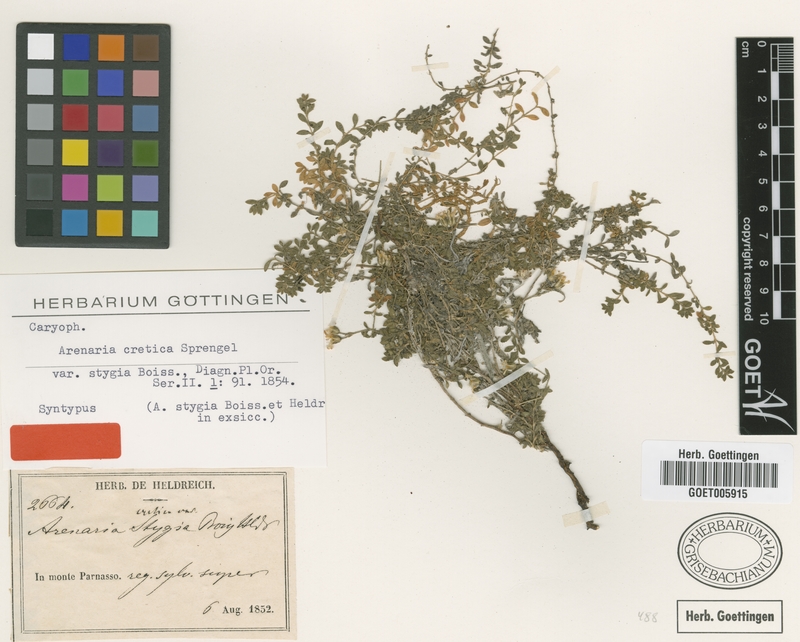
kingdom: Plantae
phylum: Tracheophyta
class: Magnoliopsida
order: Caryophyllales
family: Caryophyllaceae
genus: Arenaria
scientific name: Arenaria cretica
